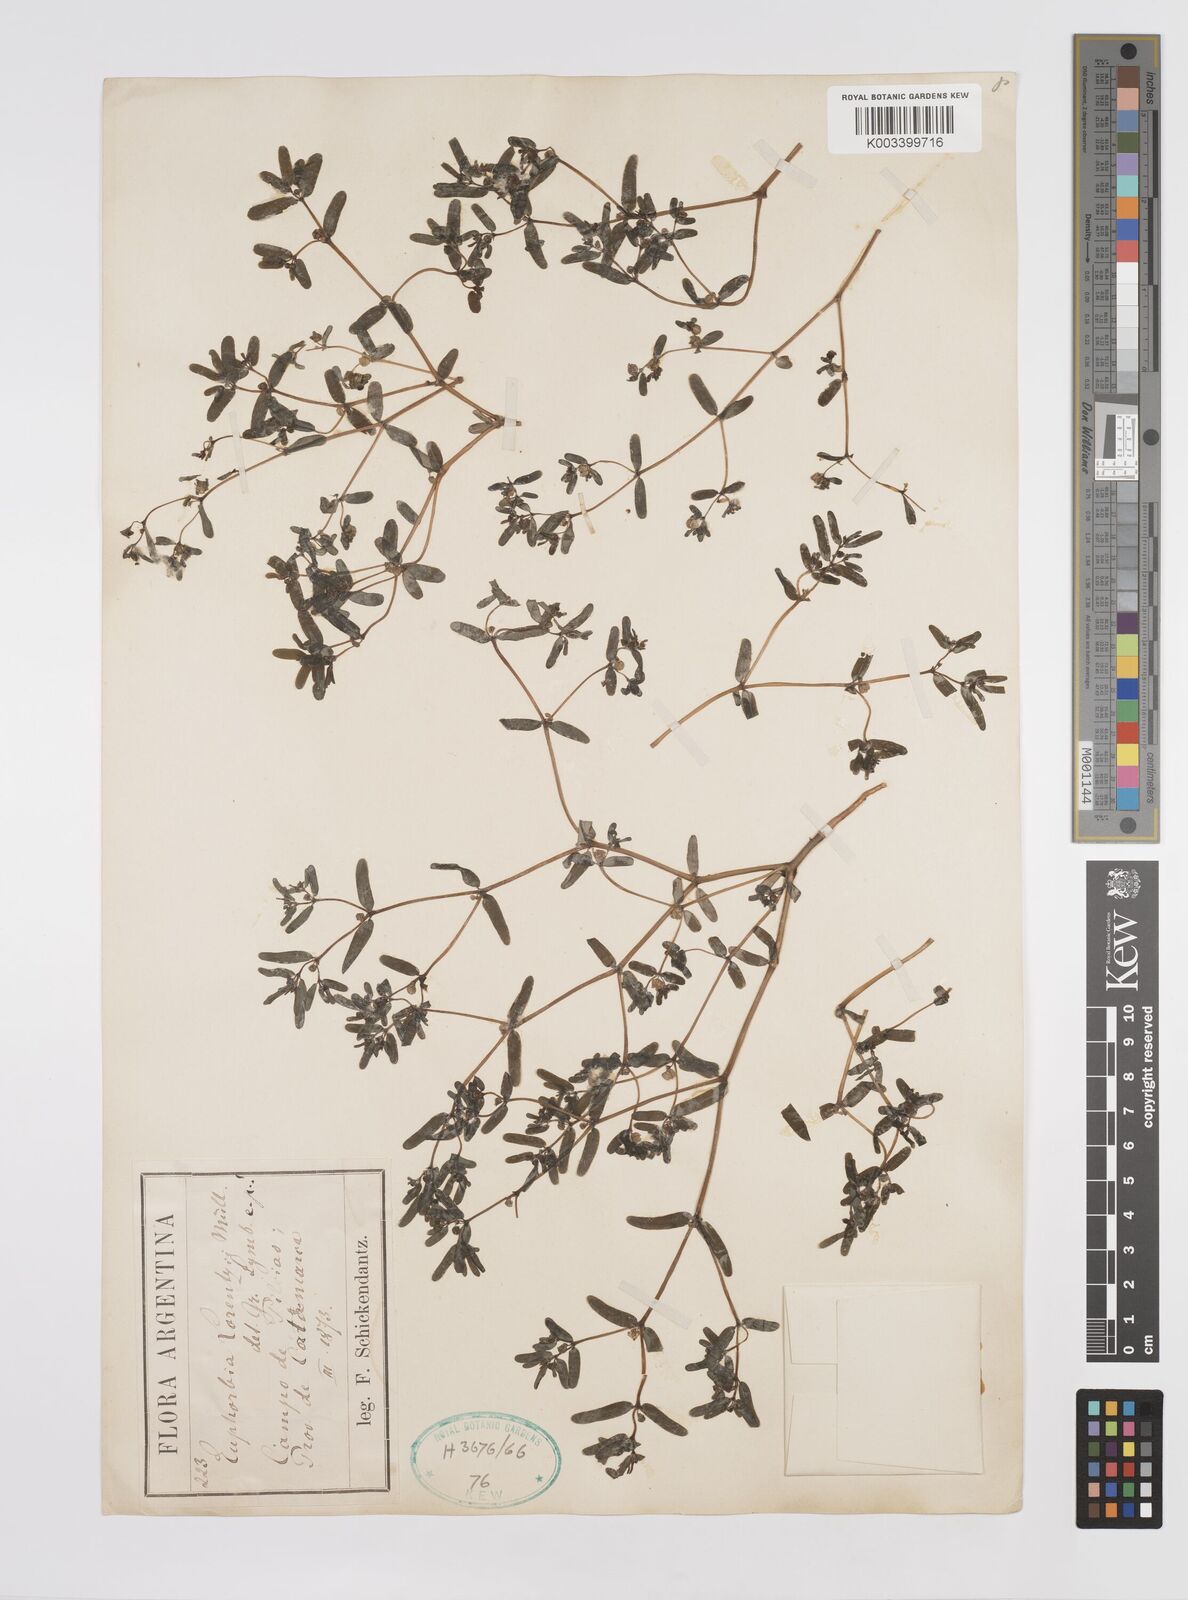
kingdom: Plantae
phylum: Tracheophyta
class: Magnoliopsida
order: Malpighiales
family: Euphorbiaceae
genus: Euphorbia
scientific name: Euphorbia lorentzii
